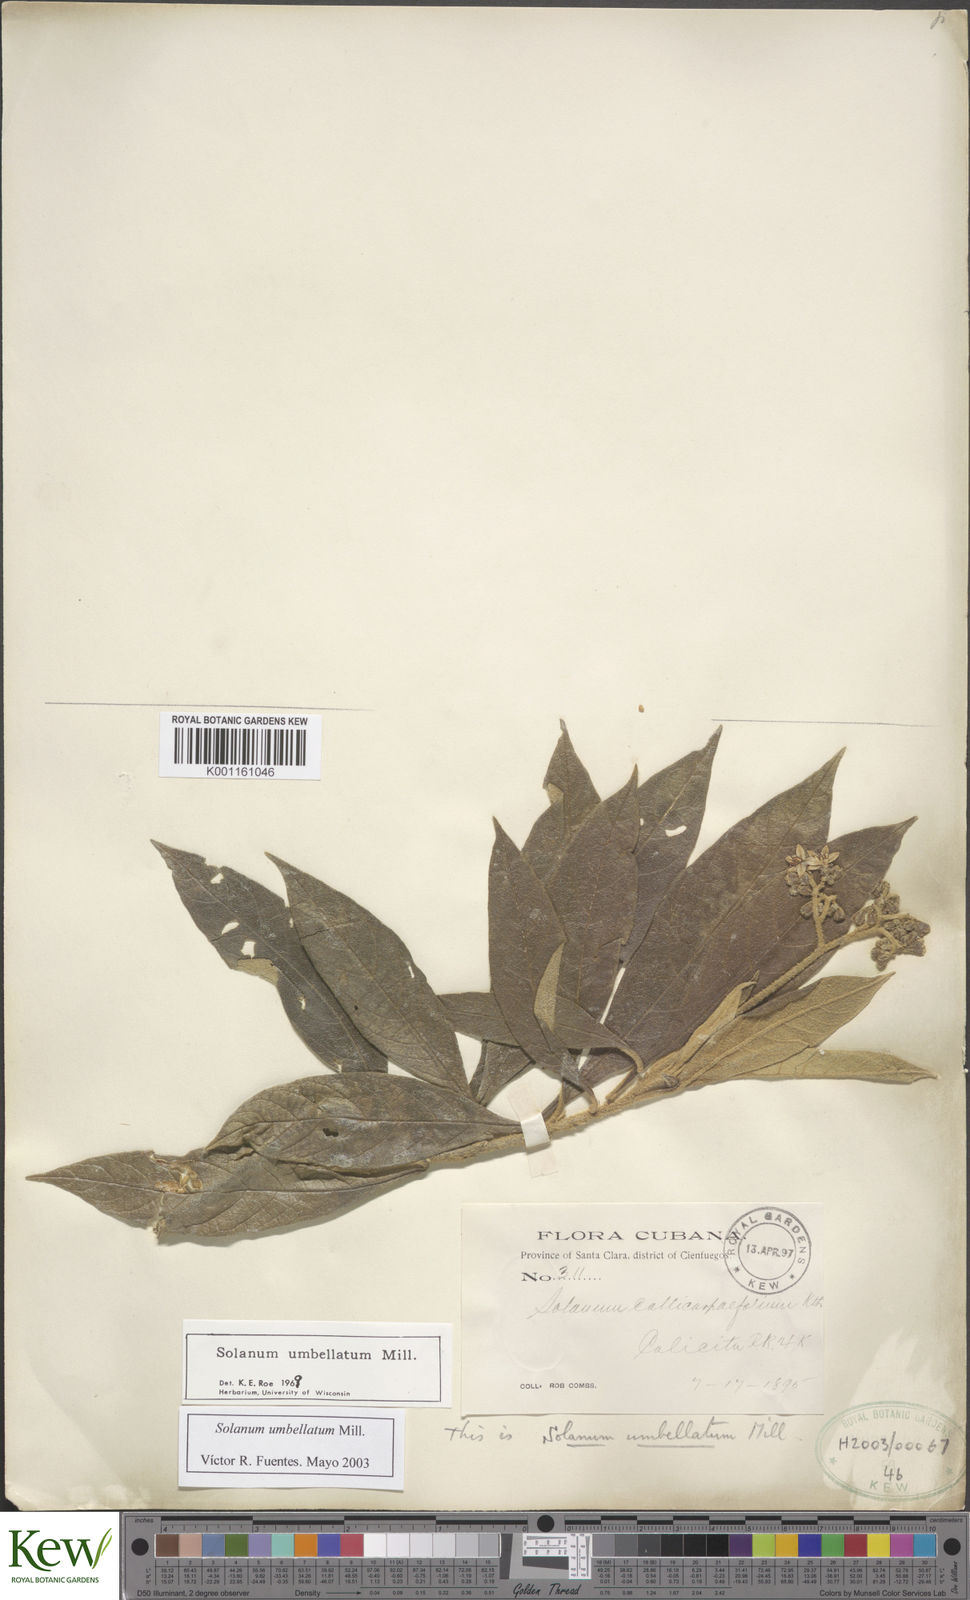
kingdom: Plantae
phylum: Tracheophyta
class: Magnoliopsida
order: Solanales
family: Solanaceae
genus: Solanum
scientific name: Solanum umbellatum
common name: Nightshade
